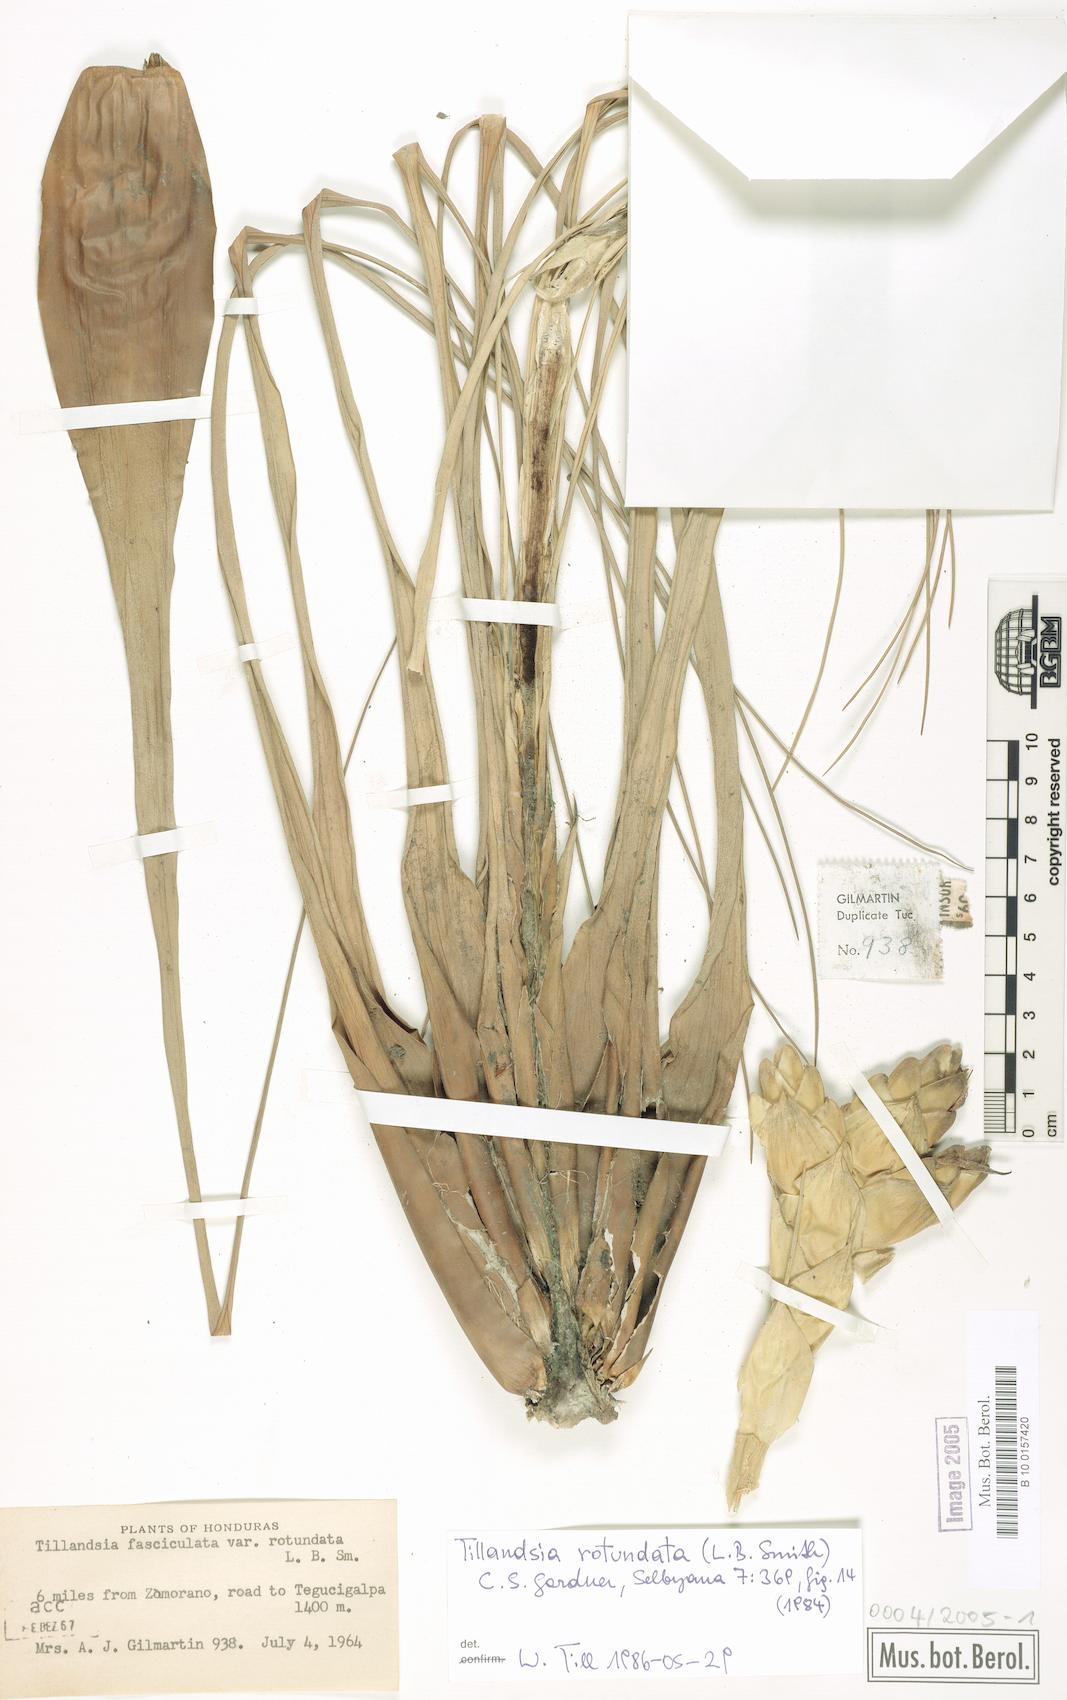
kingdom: Plantae
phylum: Tracheophyta
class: Liliopsida
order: Poales
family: Bromeliaceae
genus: Tillandsia
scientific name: Tillandsia rotundata
